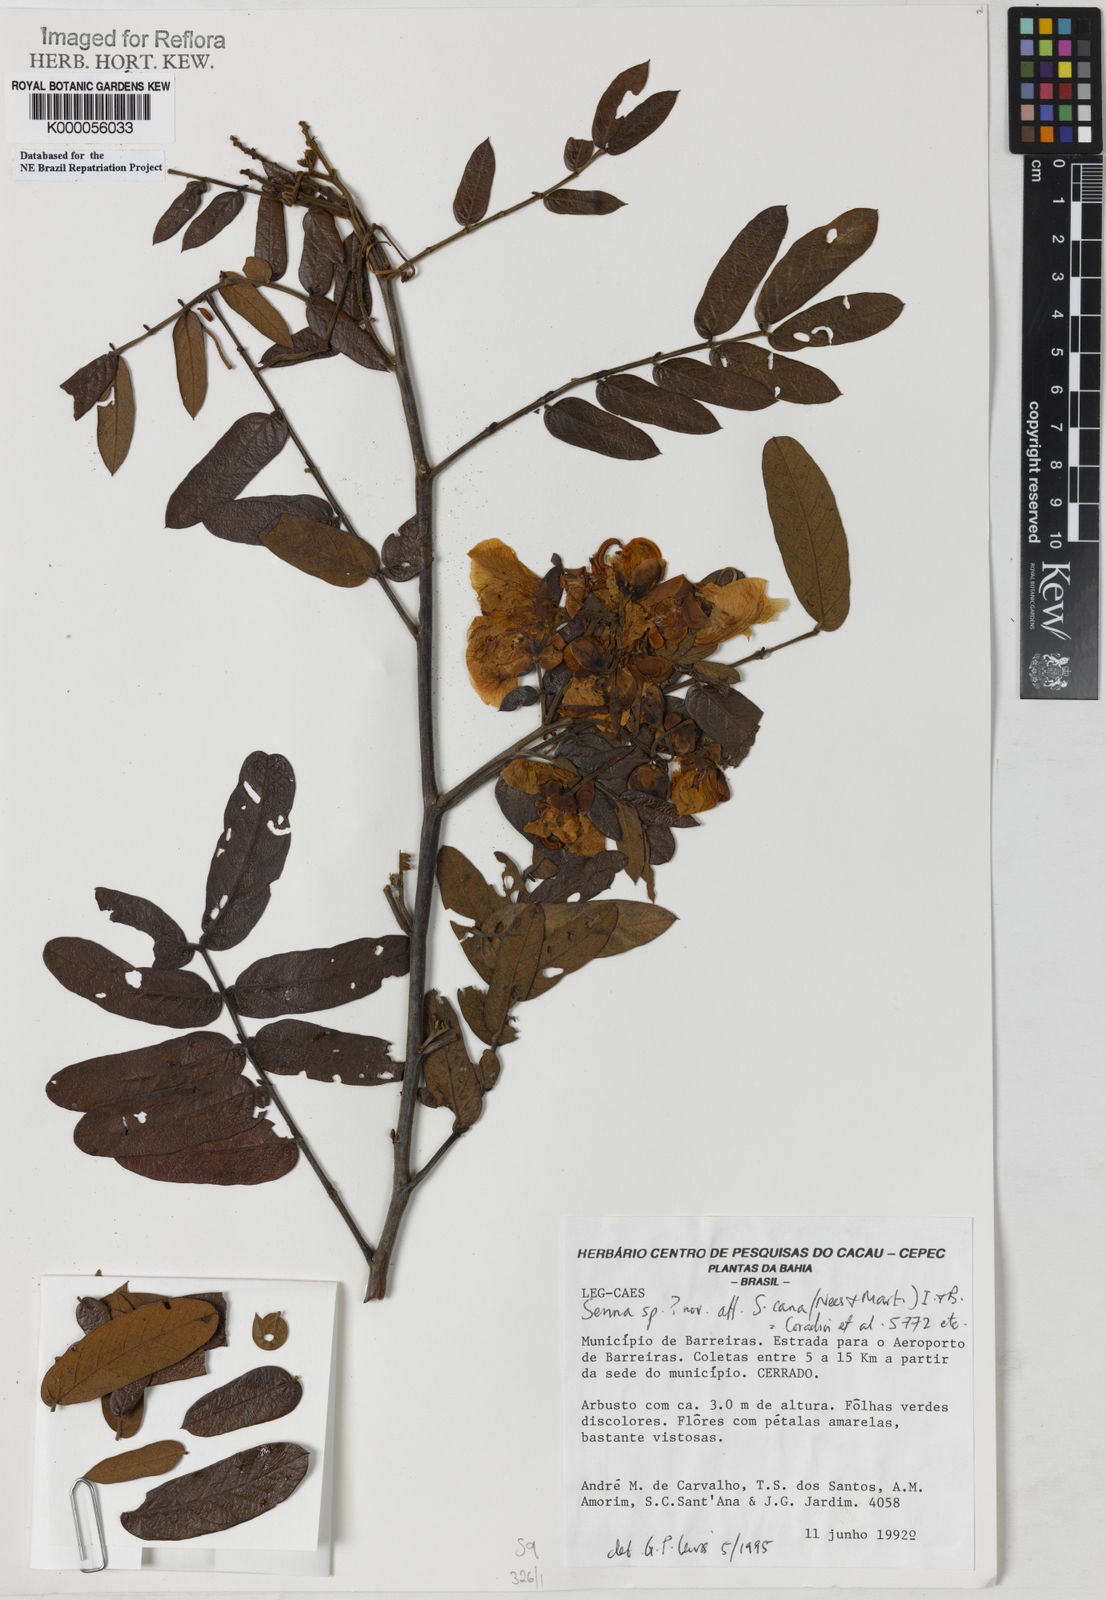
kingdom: Plantae
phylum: Tracheophyta
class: Magnoliopsida
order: Fabales
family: Fabaceae
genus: Senna
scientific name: Senna biglandularis
